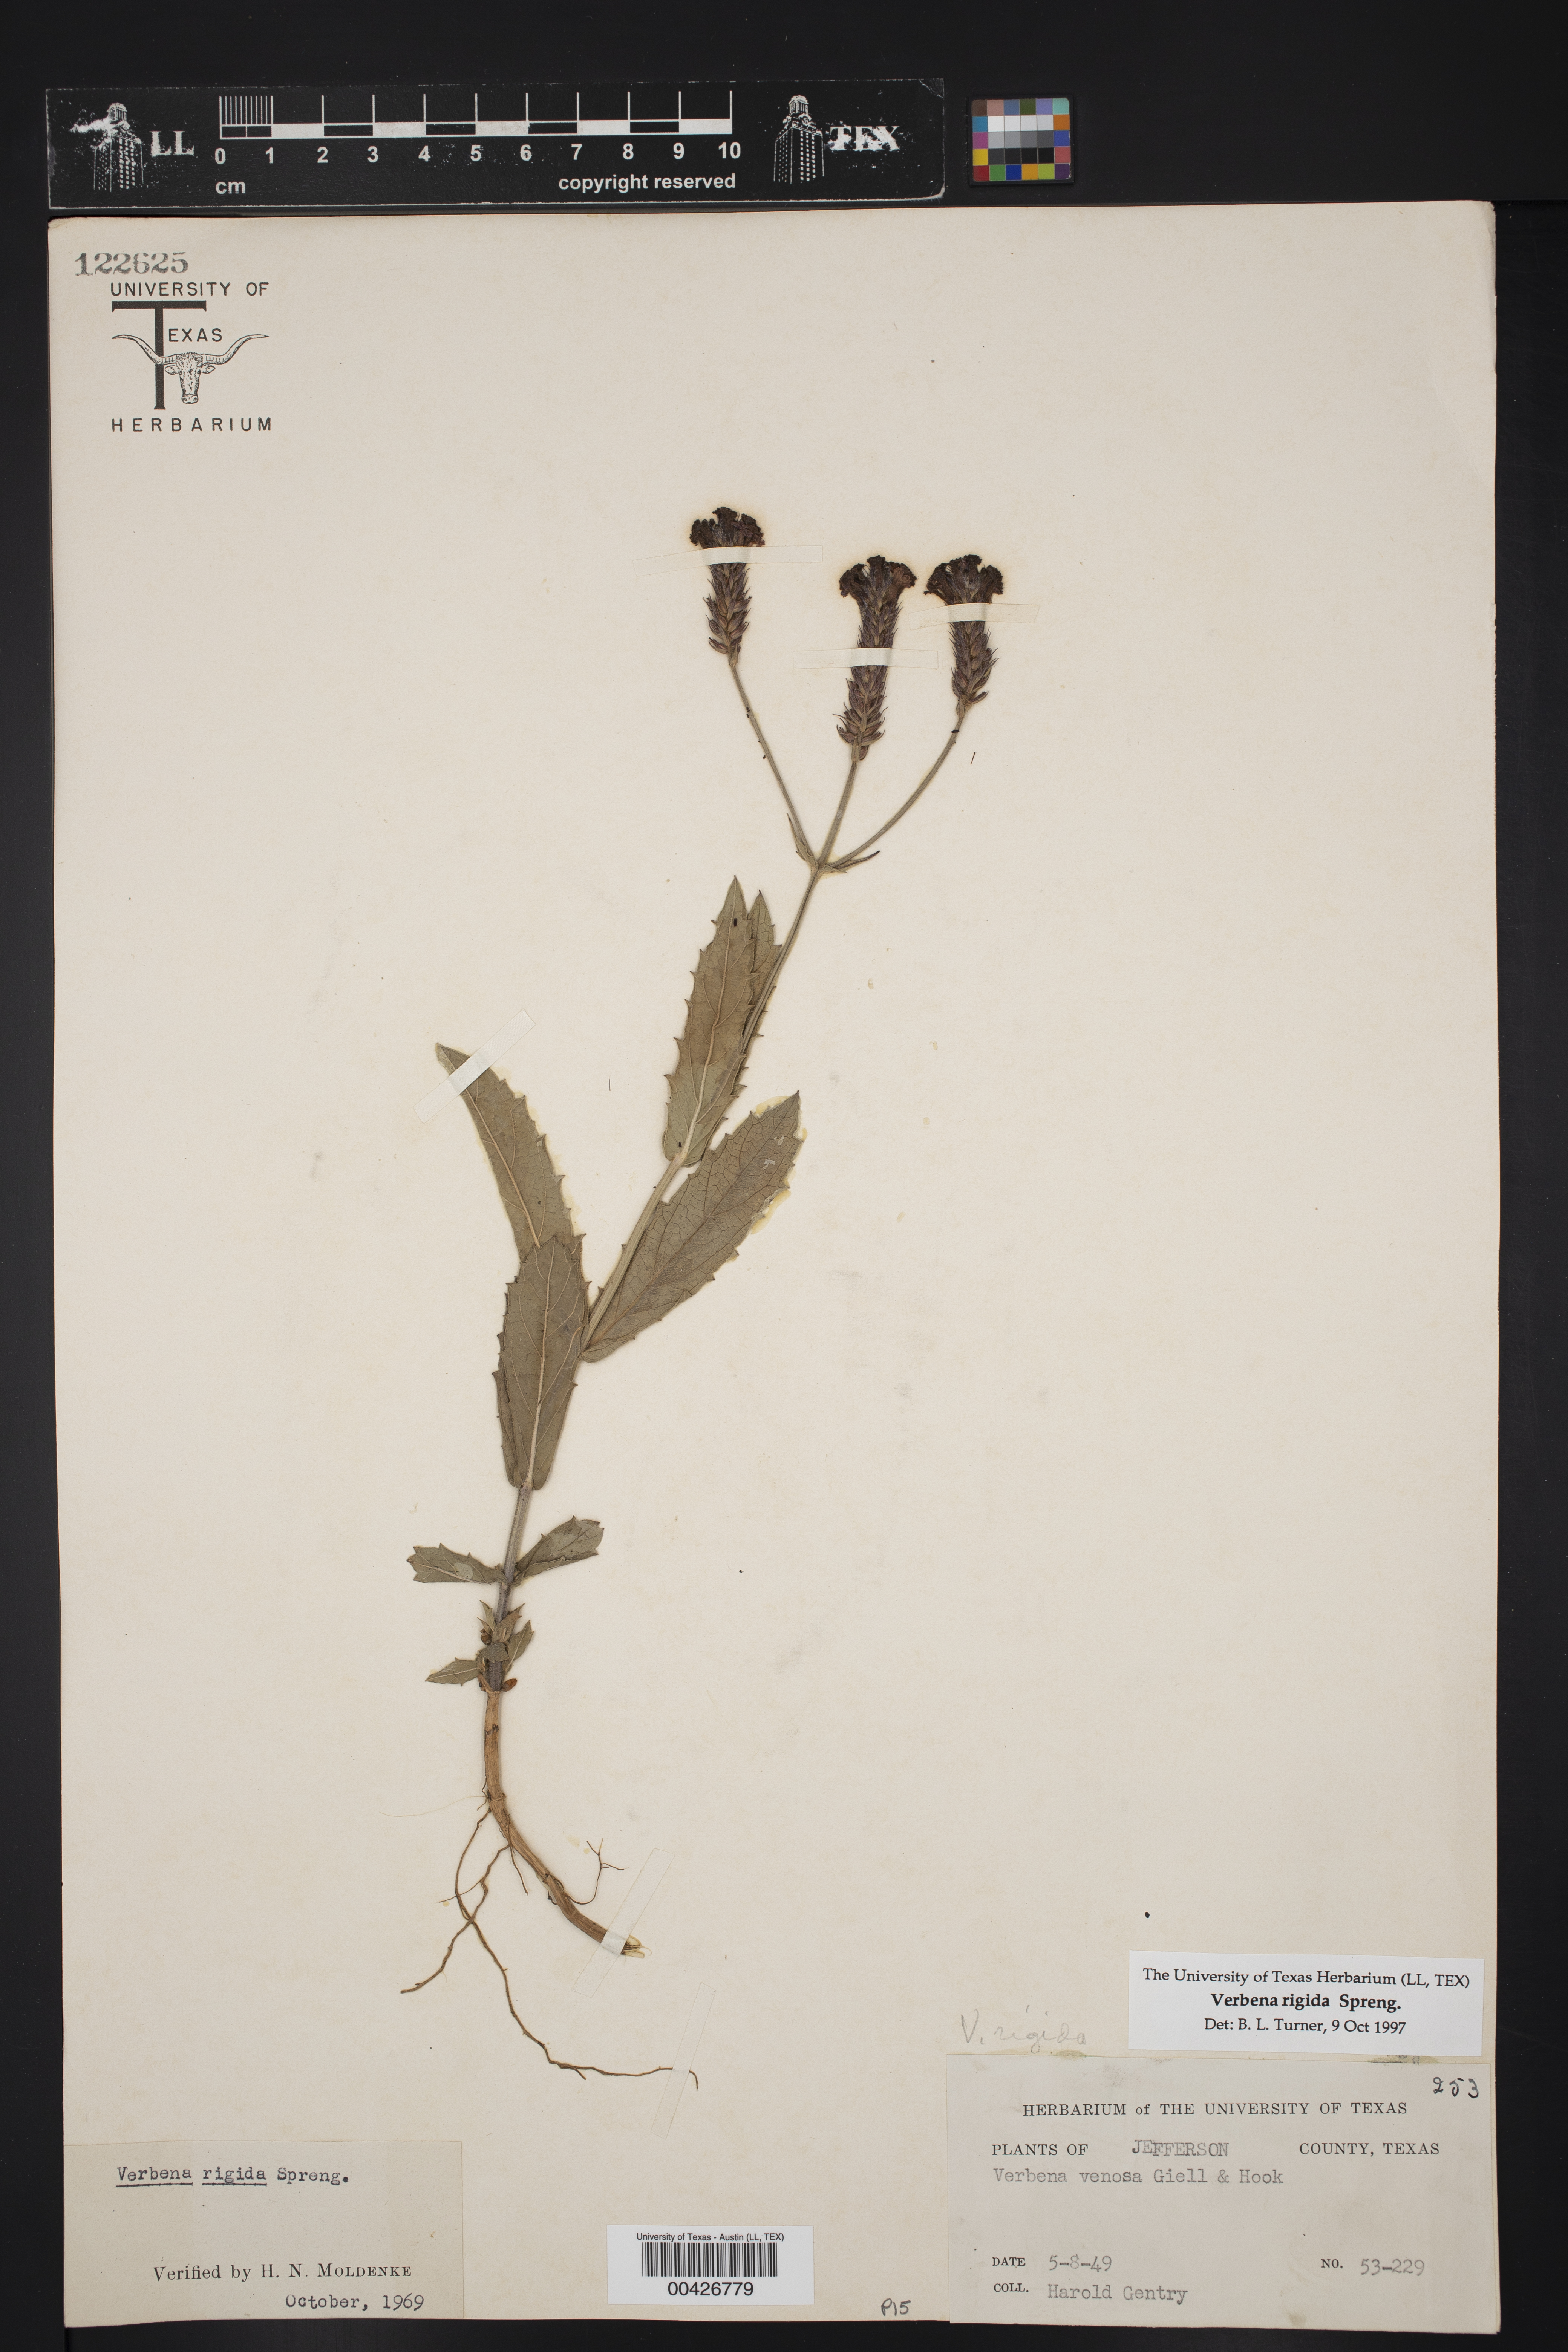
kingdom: Plantae
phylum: Tracheophyta
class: Magnoliopsida
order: Lamiales
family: Verbenaceae
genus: Verbena
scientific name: Verbena rigida
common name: Slender vervain
